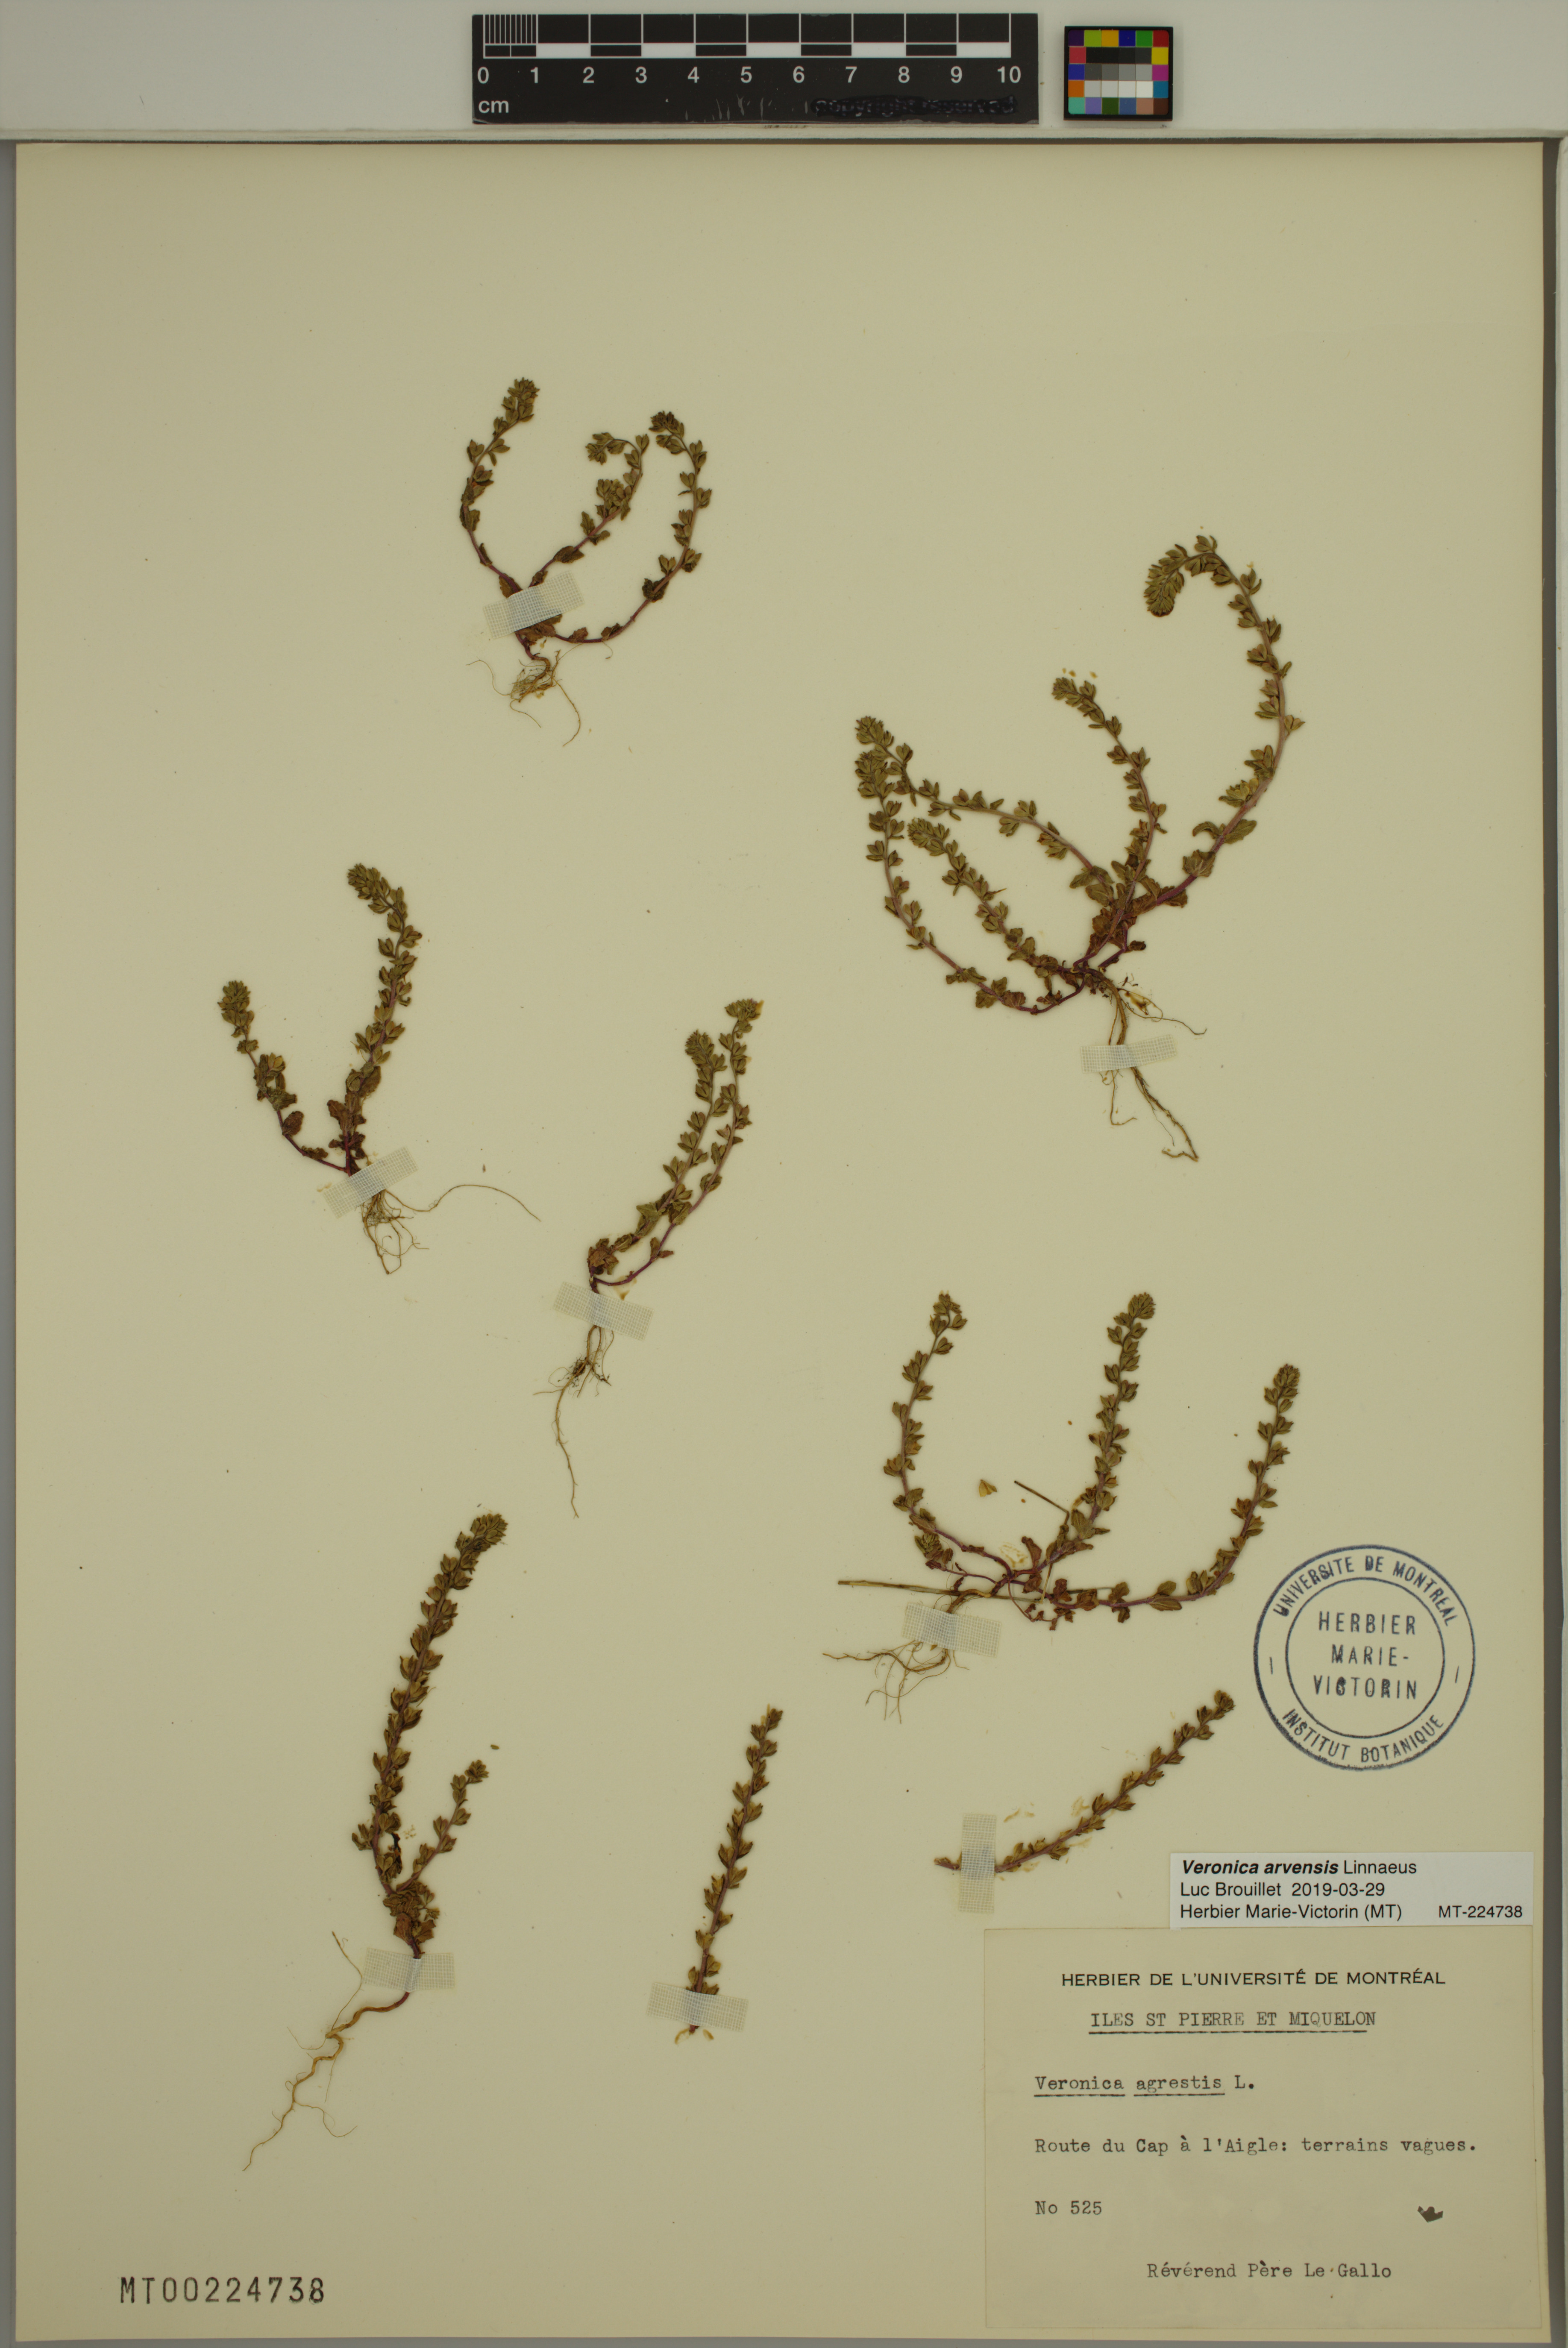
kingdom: Plantae
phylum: Tracheophyta
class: Magnoliopsida
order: Lamiales
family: Plantaginaceae
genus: Veronica
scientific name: Veronica arvensis
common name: Corn speedwell
